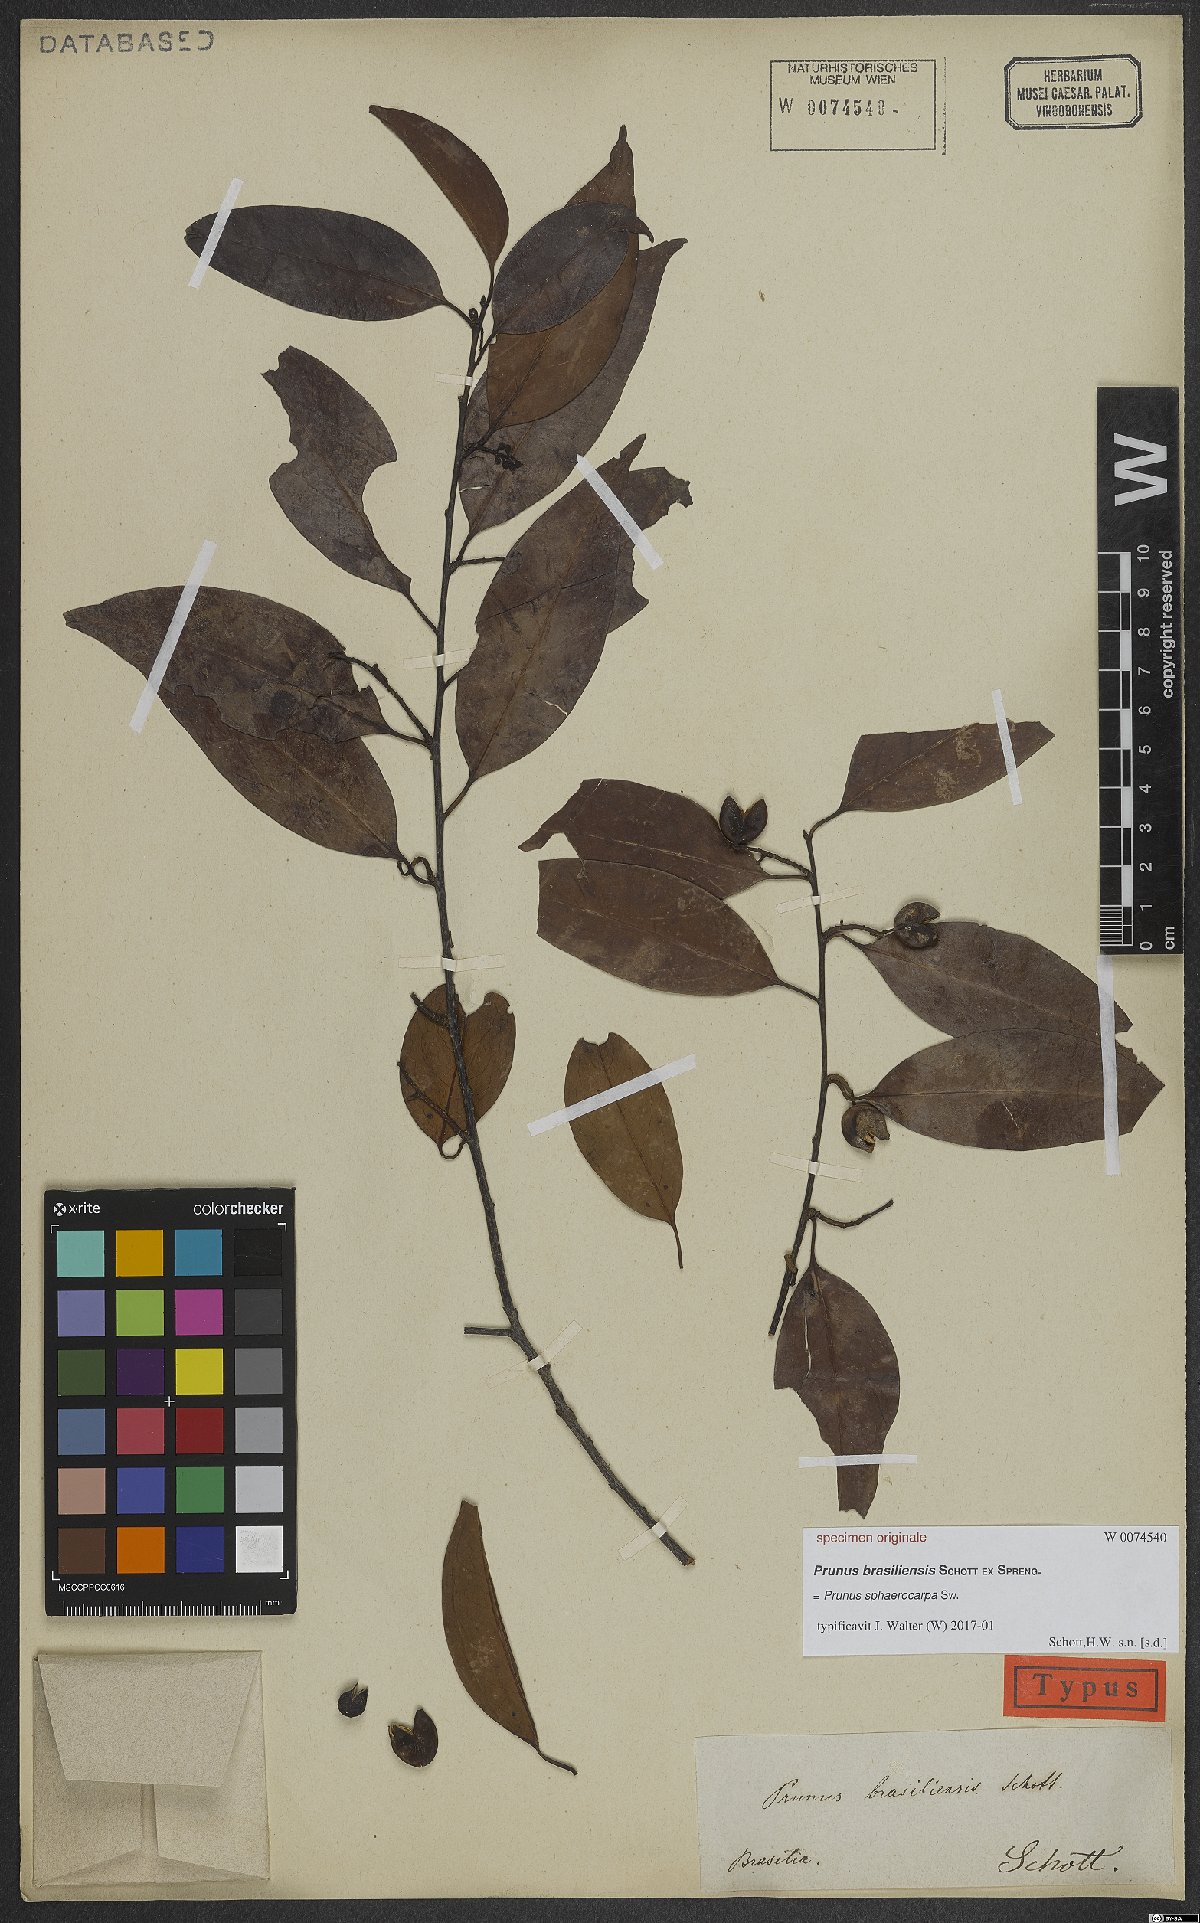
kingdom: Plantae
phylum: Tracheophyta
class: Magnoliopsida
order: Rosales
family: Rosaceae
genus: Prunus
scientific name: Prunus reflexa
